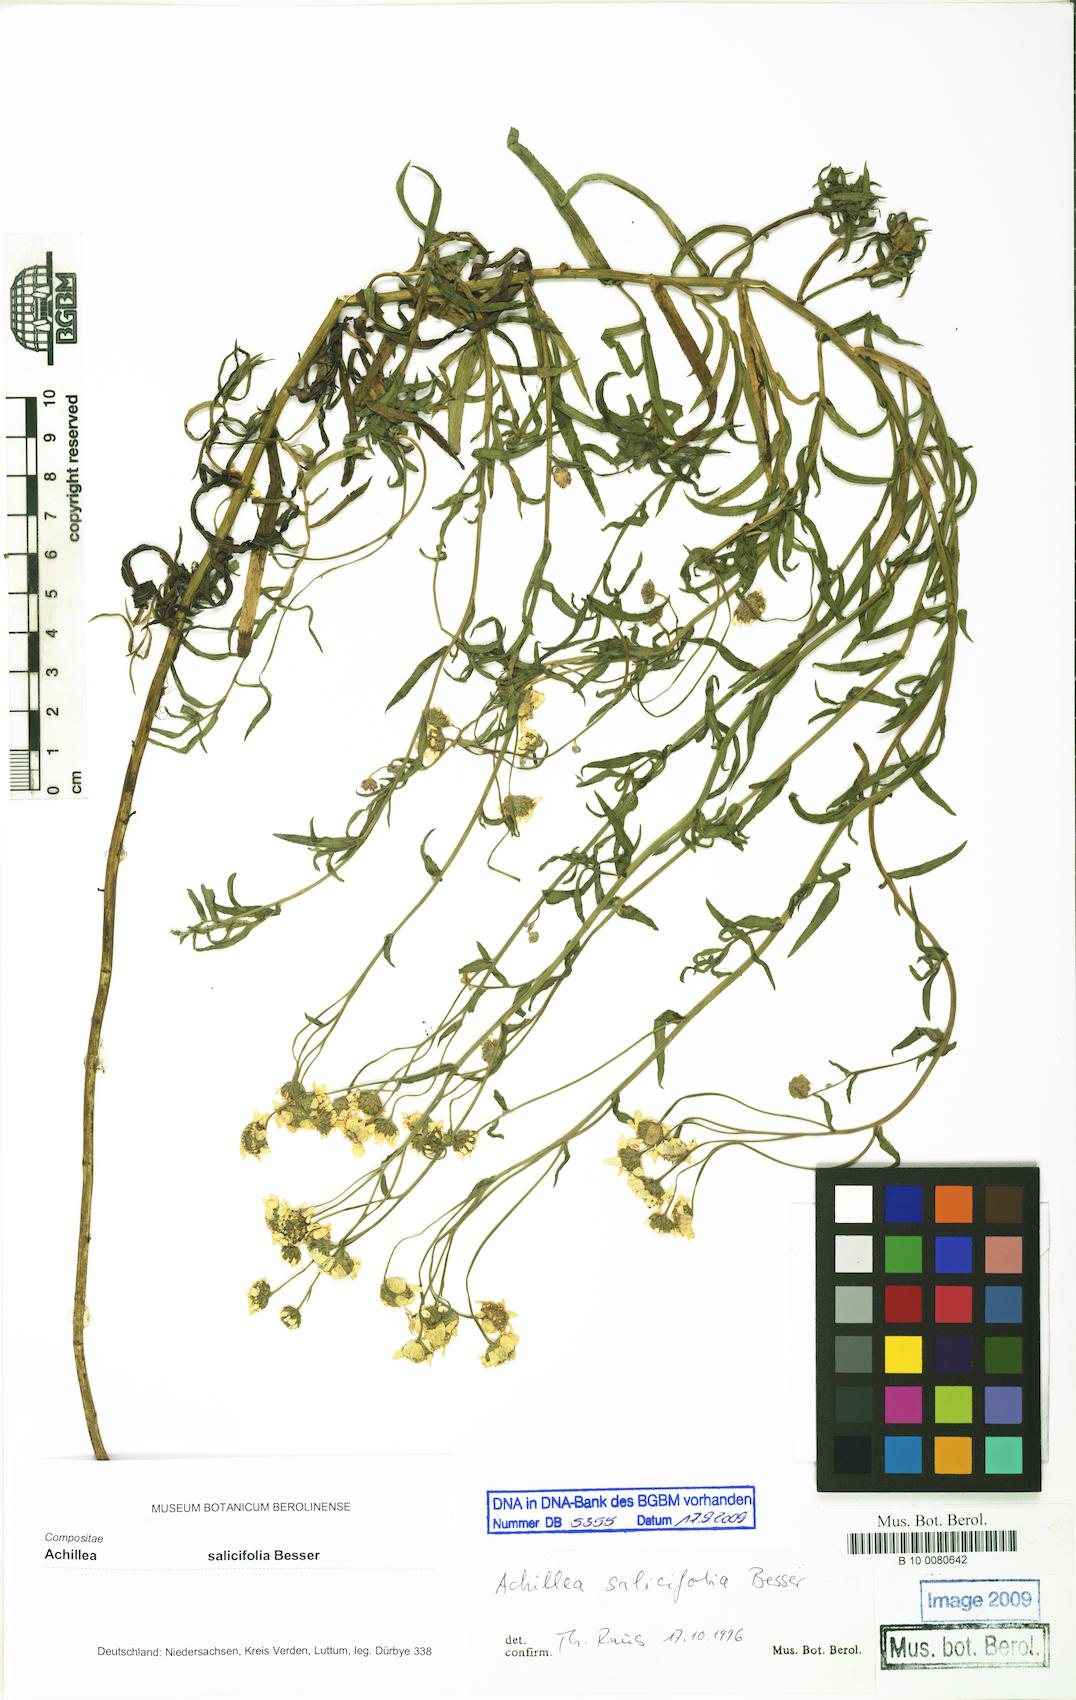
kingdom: Plantae
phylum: Tracheophyta
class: Magnoliopsida
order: Asterales
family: Asteraceae
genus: Achillea
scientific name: Achillea salicifolia
